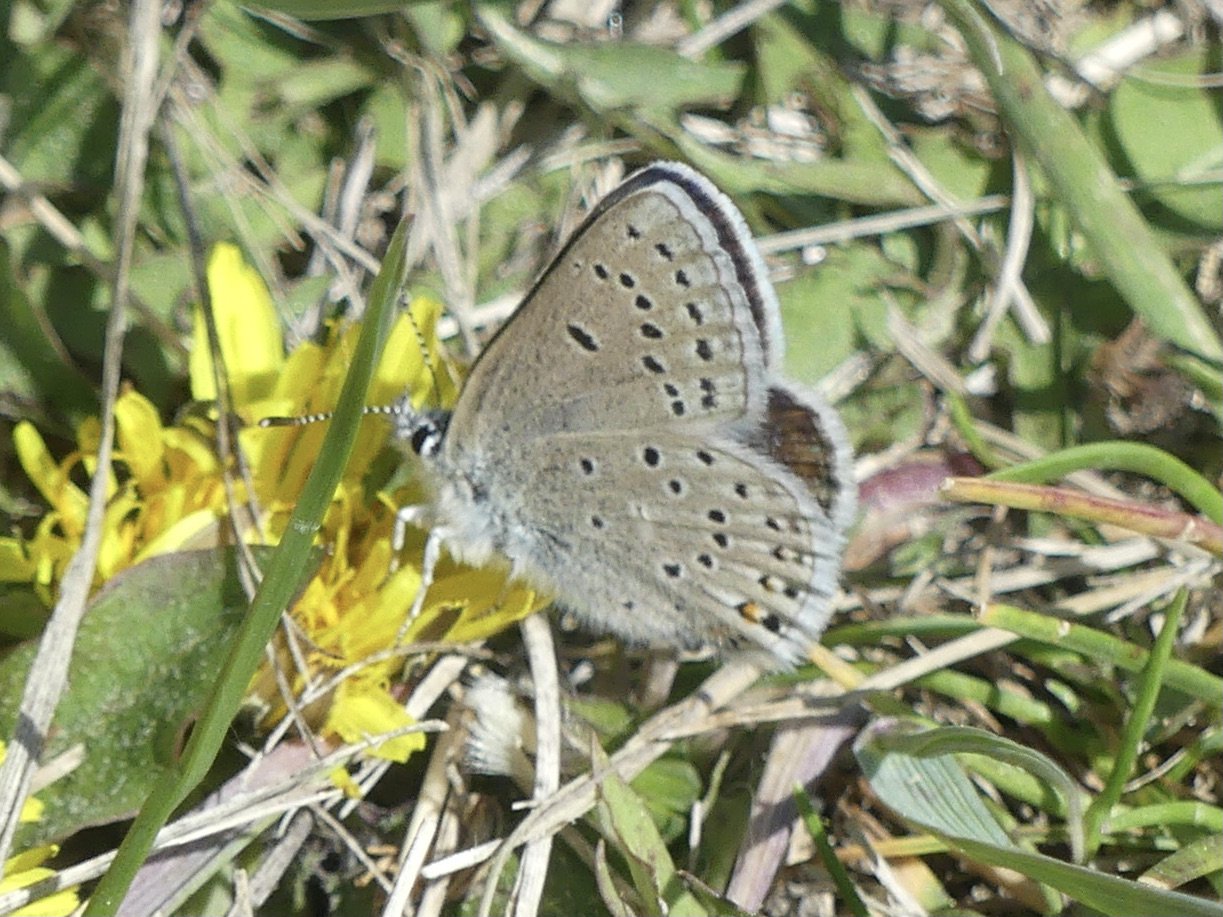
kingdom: Animalia
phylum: Arthropoda
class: Insecta
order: Lepidoptera
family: Lycaenidae
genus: Plebejus
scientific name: Plebejus saepiolus
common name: Greenish Blue
